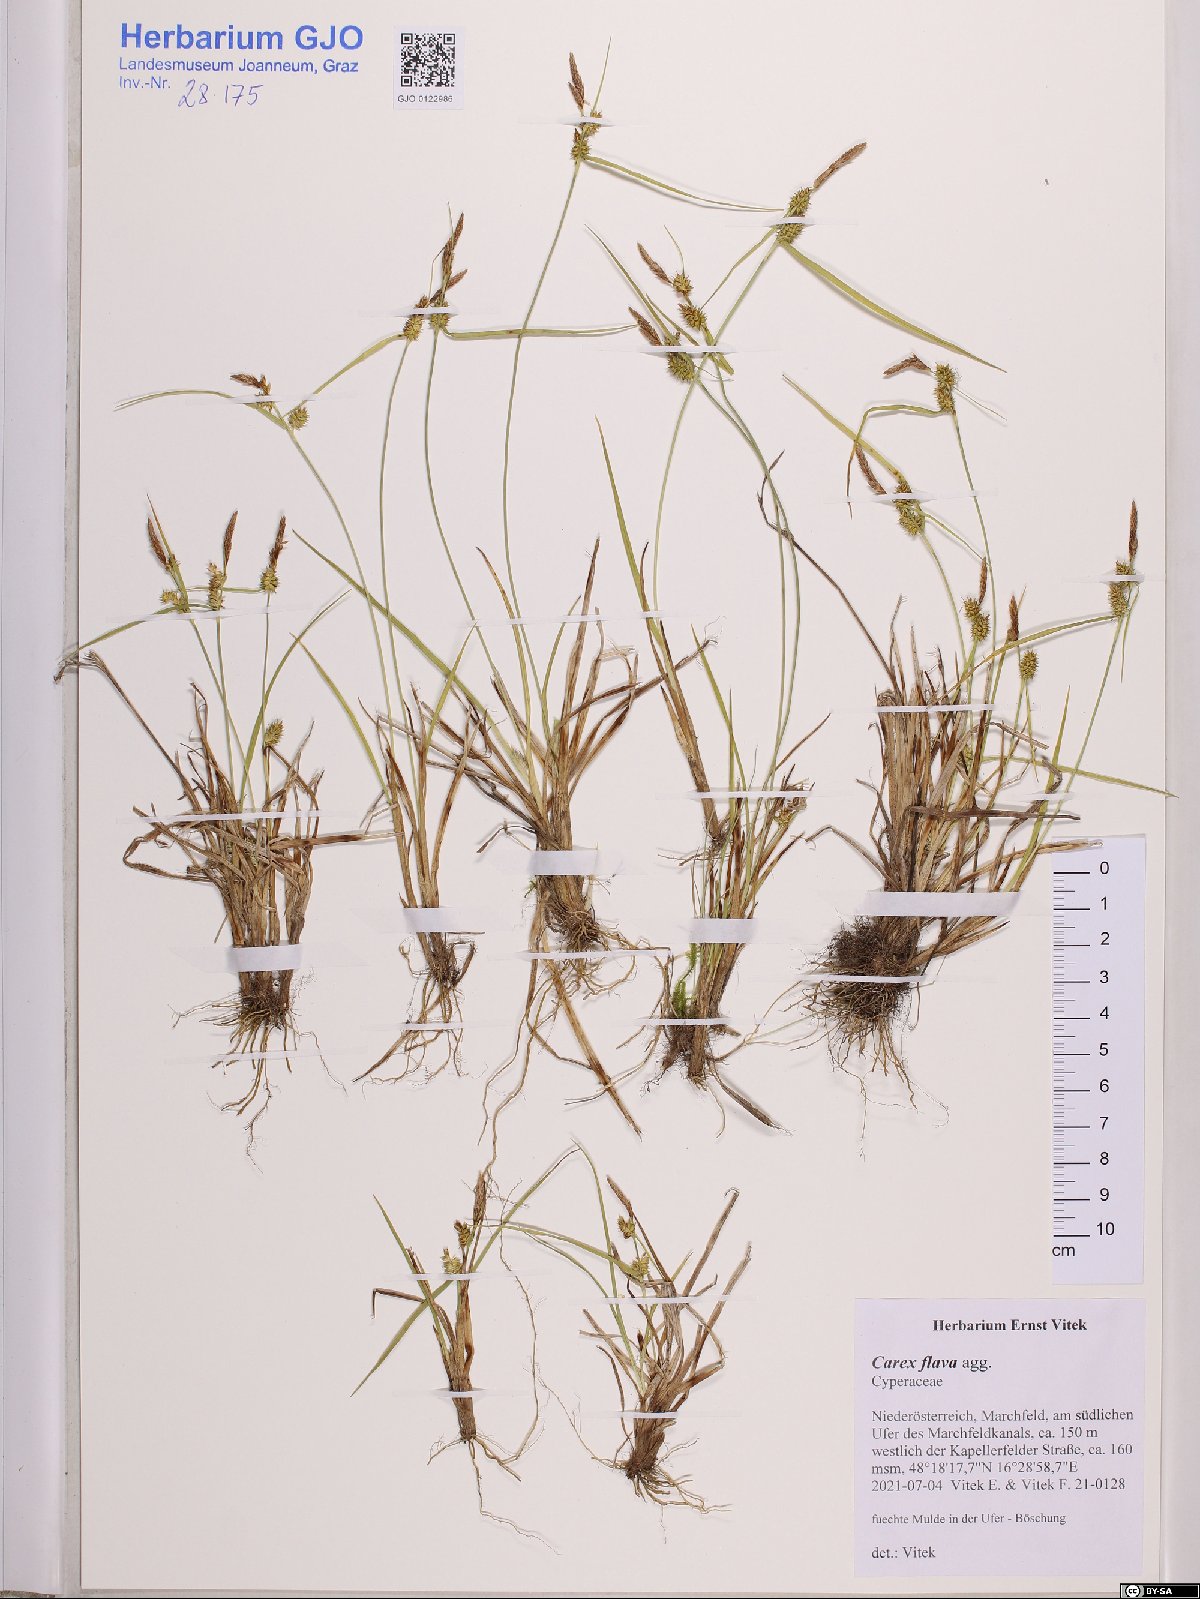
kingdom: Plantae
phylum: Tracheophyta
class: Liliopsida
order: Poales
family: Cyperaceae
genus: Carex
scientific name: Carex flava
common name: Large yellow-sedge
